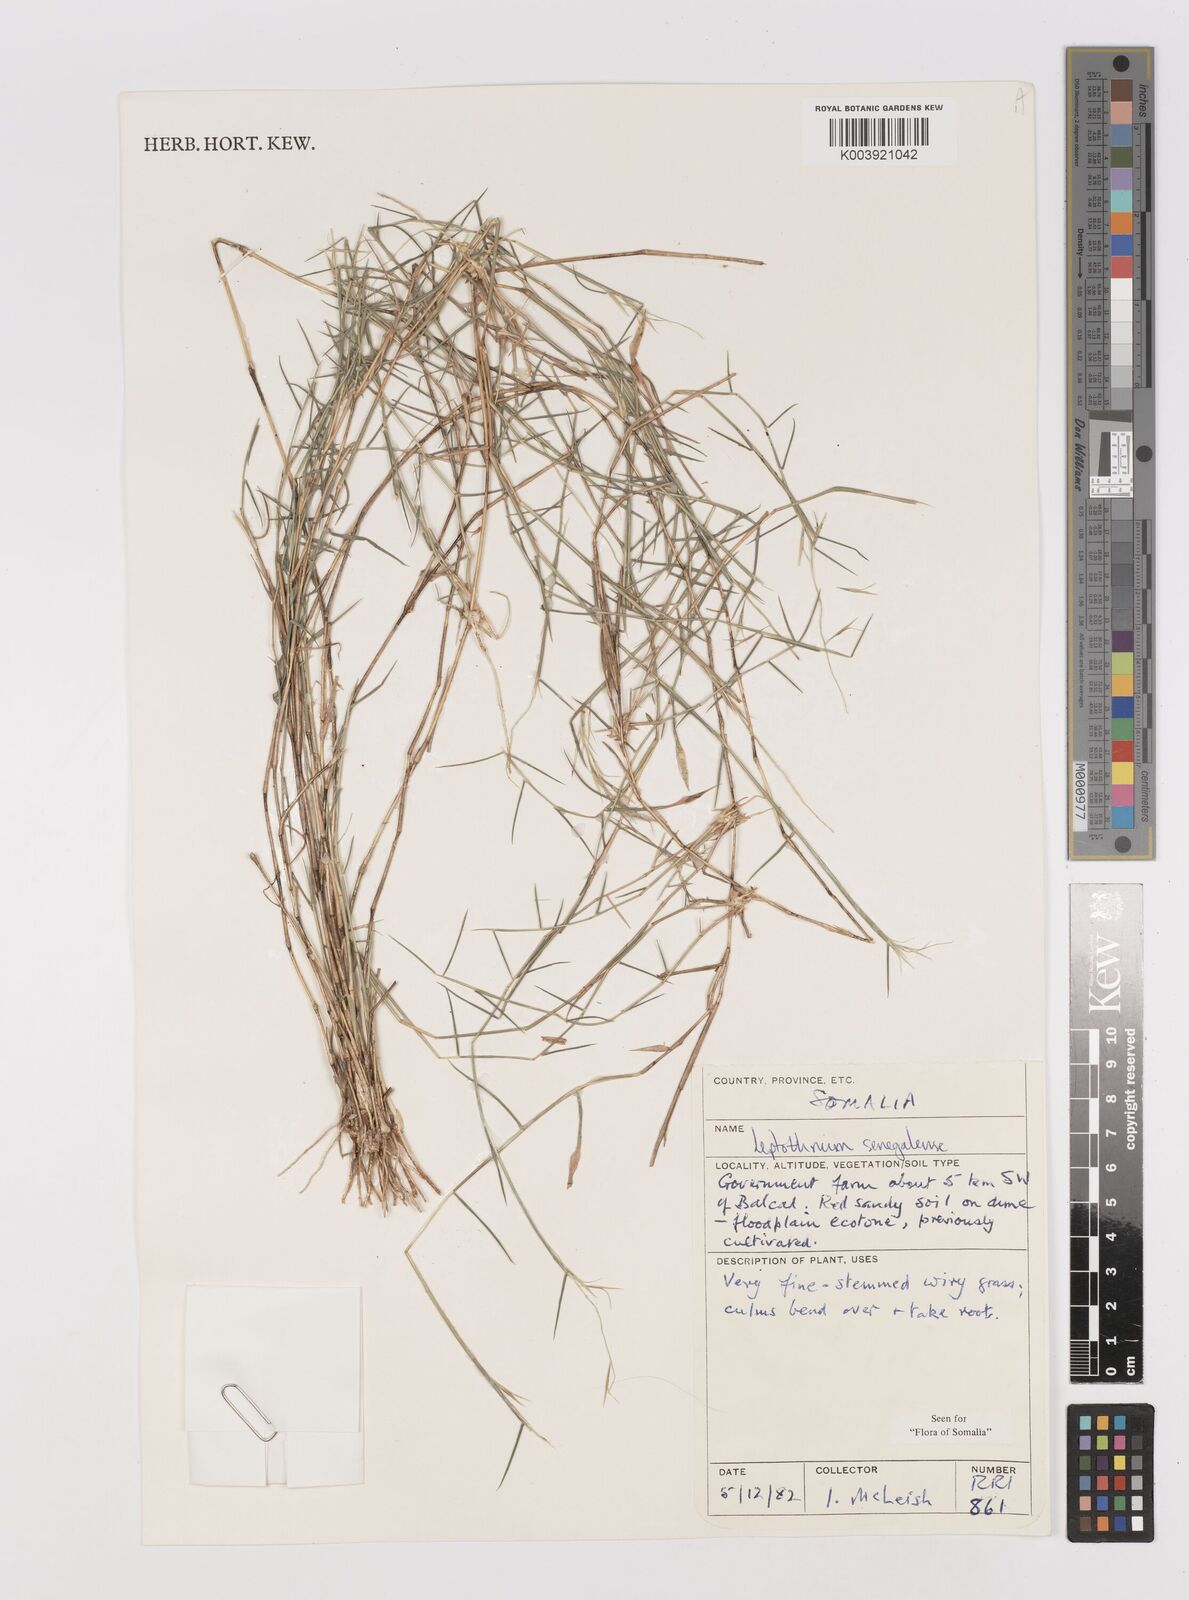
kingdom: Plantae
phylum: Tracheophyta
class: Liliopsida
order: Poales
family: Poaceae
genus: Leptothrium
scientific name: Leptothrium senegalense
